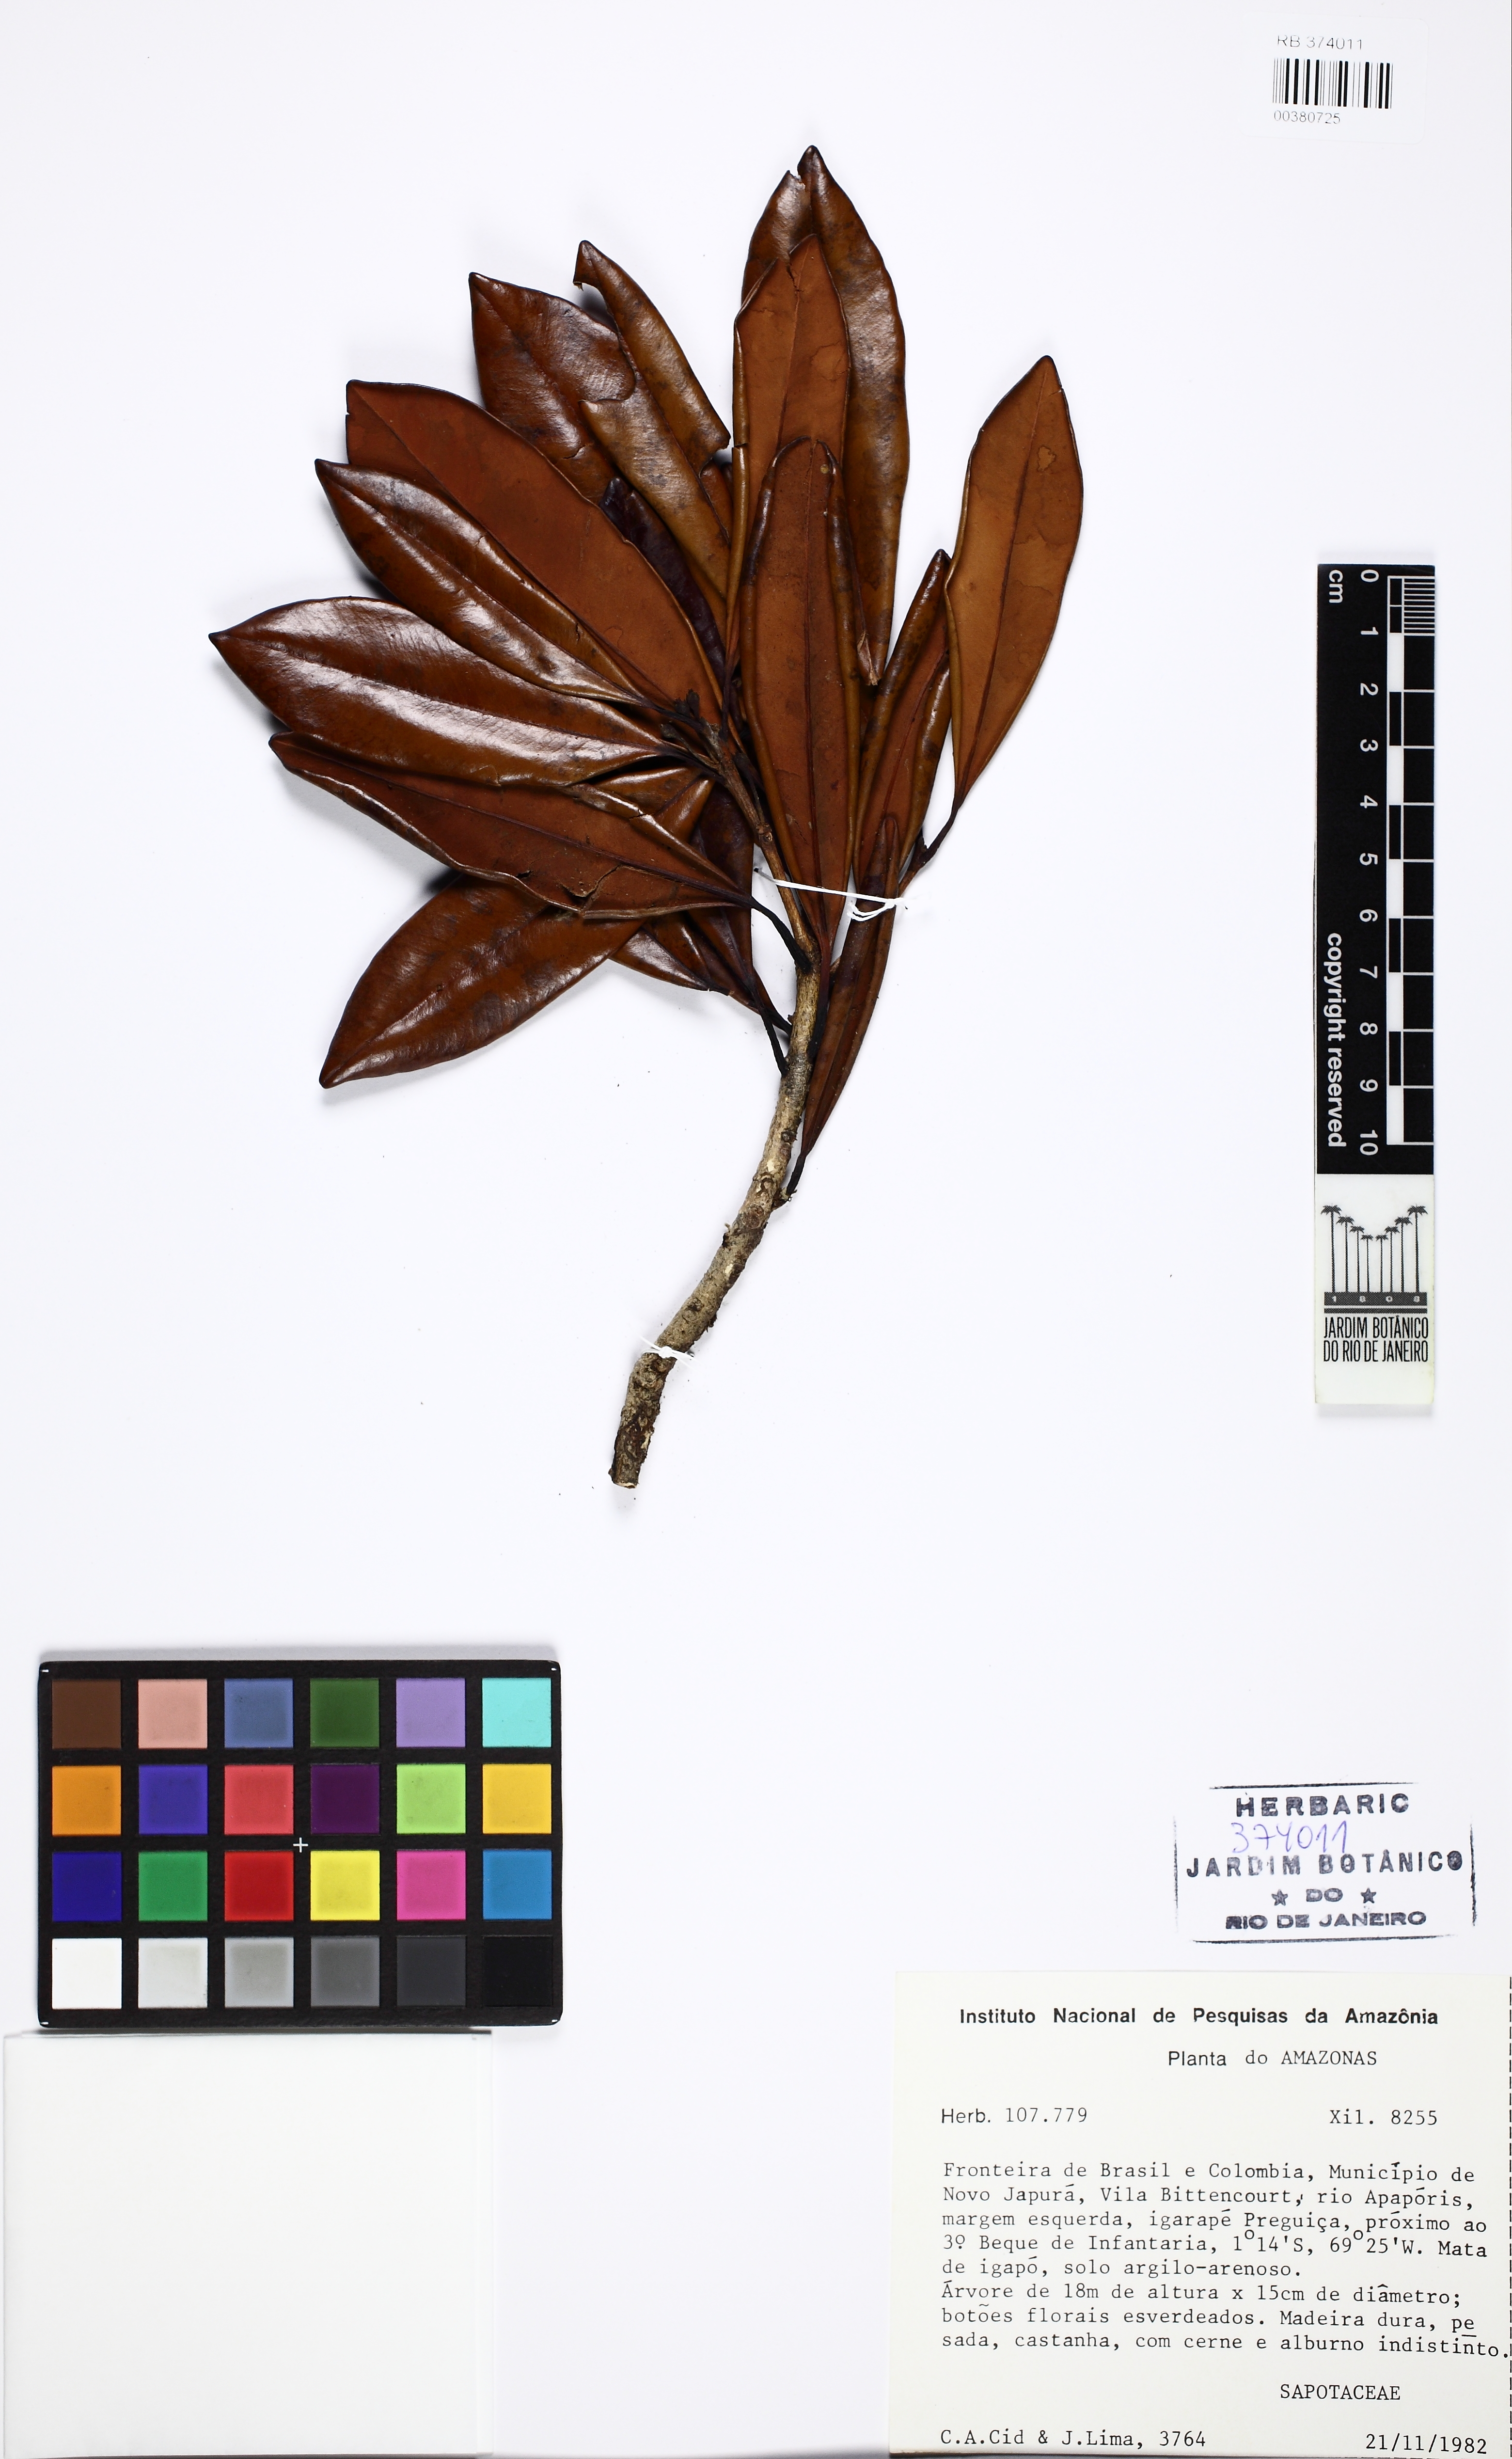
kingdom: Plantae
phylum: Tracheophyta
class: Magnoliopsida
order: Ericales
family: Sapotaceae
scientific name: Sapotaceae
